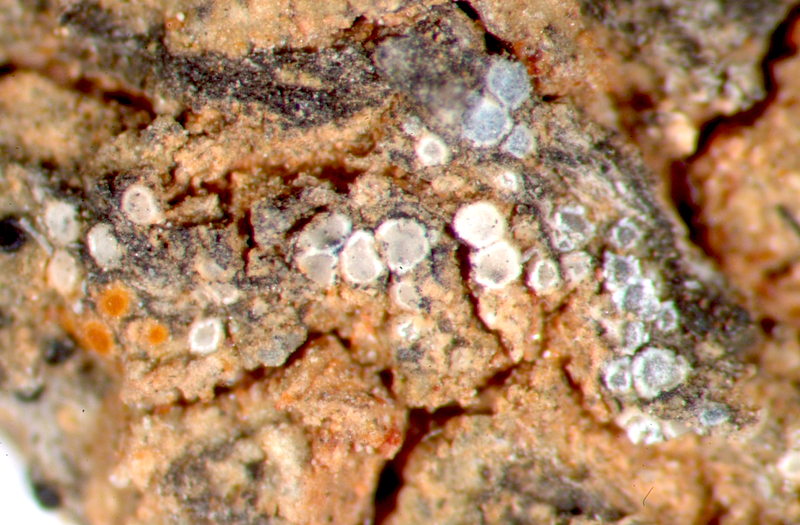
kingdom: Fungi
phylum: Ascomycota
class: Lecanoromycetes
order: Lecanorales
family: Lecanoraceae
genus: Polyozosia
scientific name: Polyozosia dispersa
